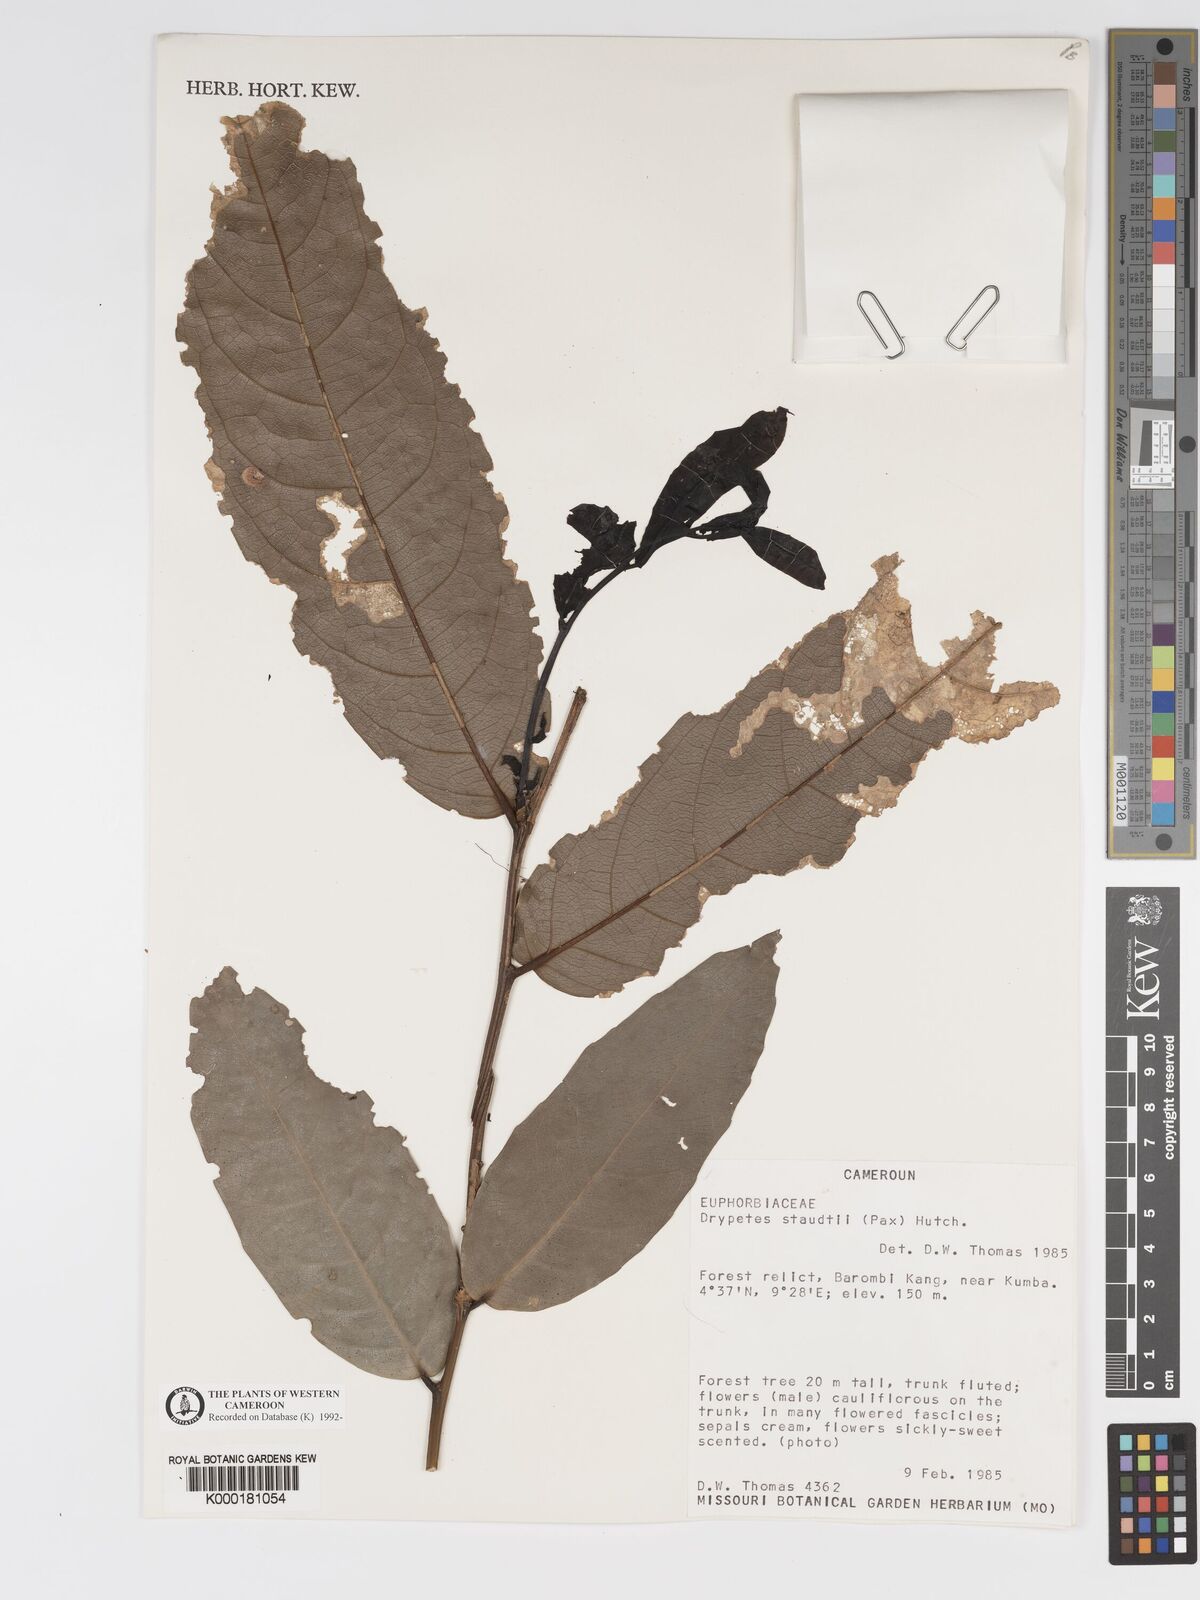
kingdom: Plantae
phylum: Tracheophyta
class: Magnoliopsida
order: Malpighiales
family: Putranjivaceae
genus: Drypetes
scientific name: Drypetes staudtii
